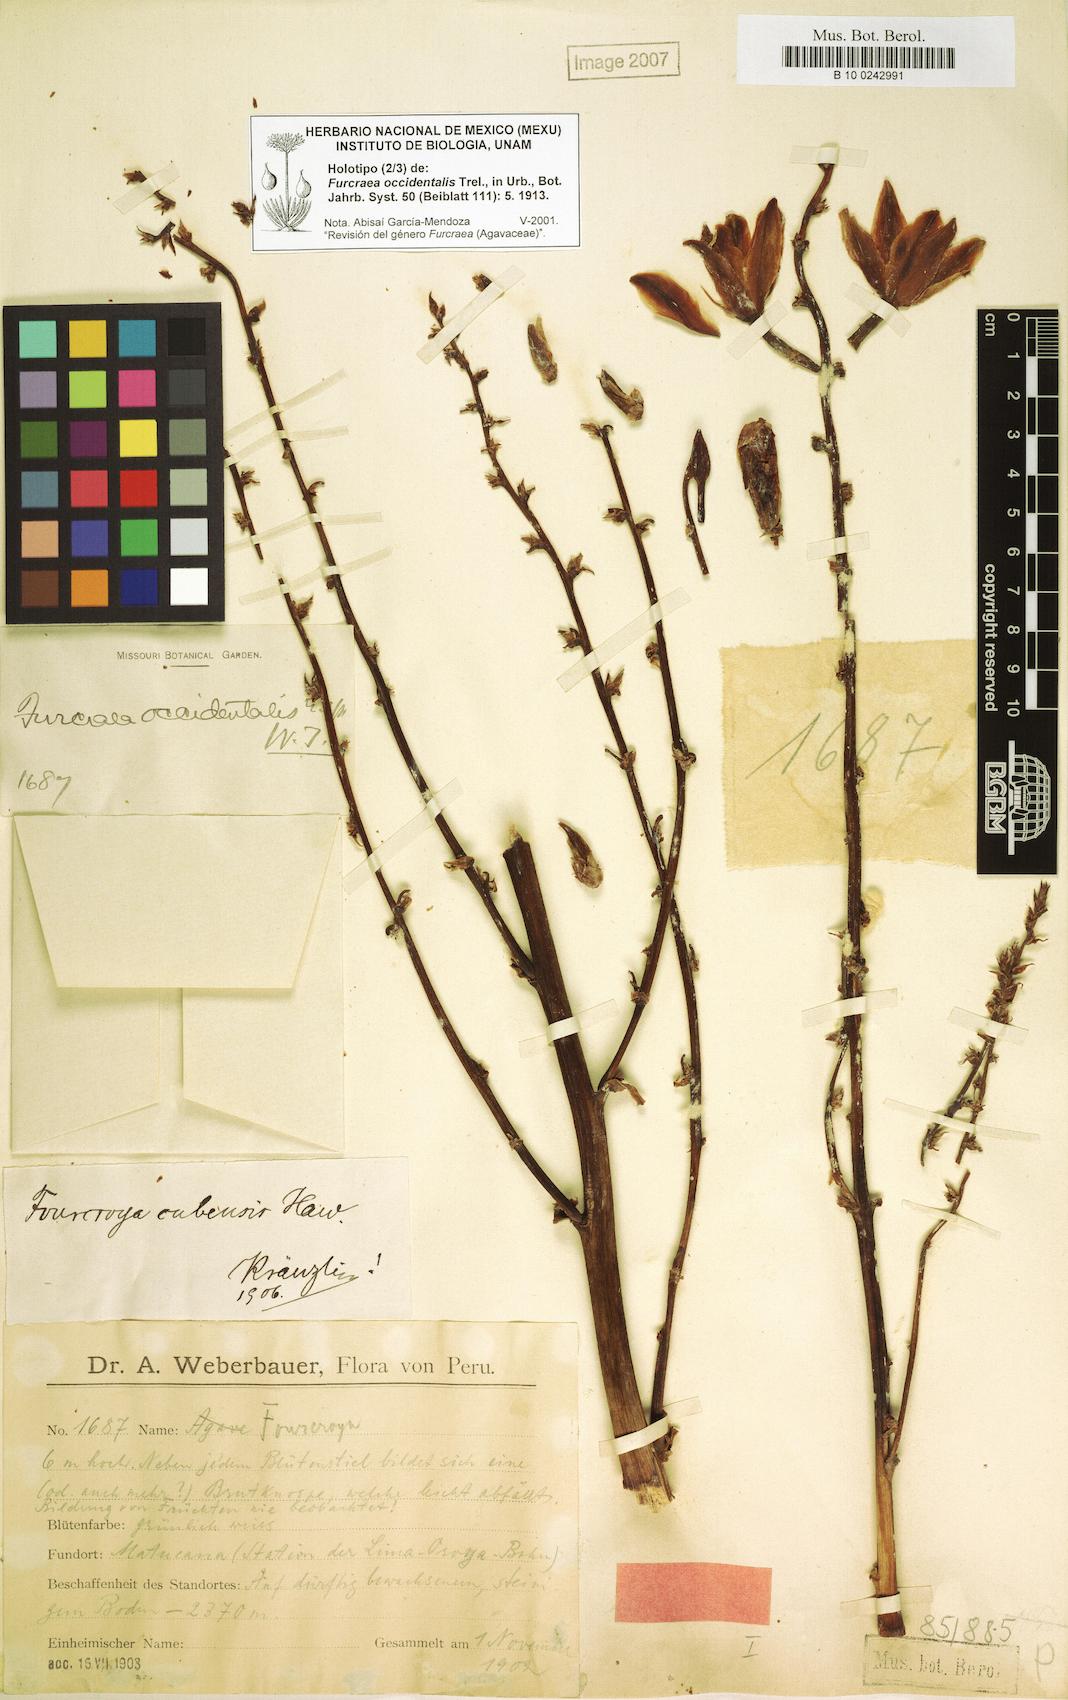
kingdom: Plantae
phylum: Tracheophyta
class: Liliopsida
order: Asparagales
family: Asparagaceae
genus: Furcraea
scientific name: Furcraea occidentalis
